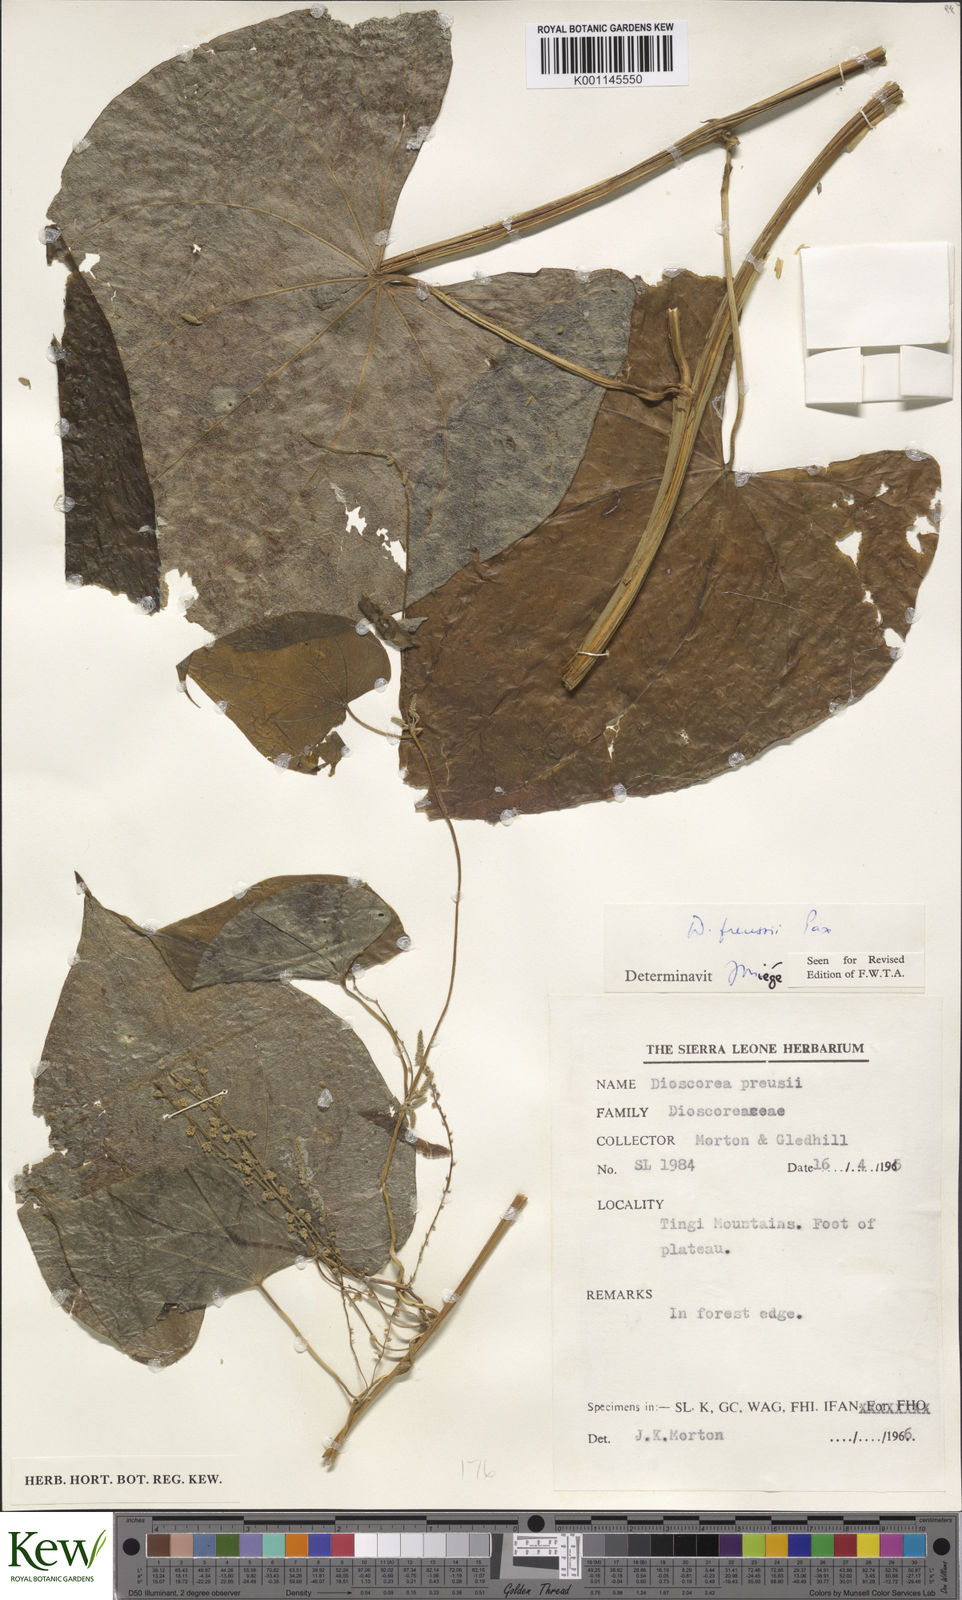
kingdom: Plantae
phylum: Tracheophyta
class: Liliopsida
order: Dioscoreales
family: Dioscoreaceae
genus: Dioscorea
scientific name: Dioscorea preussii
